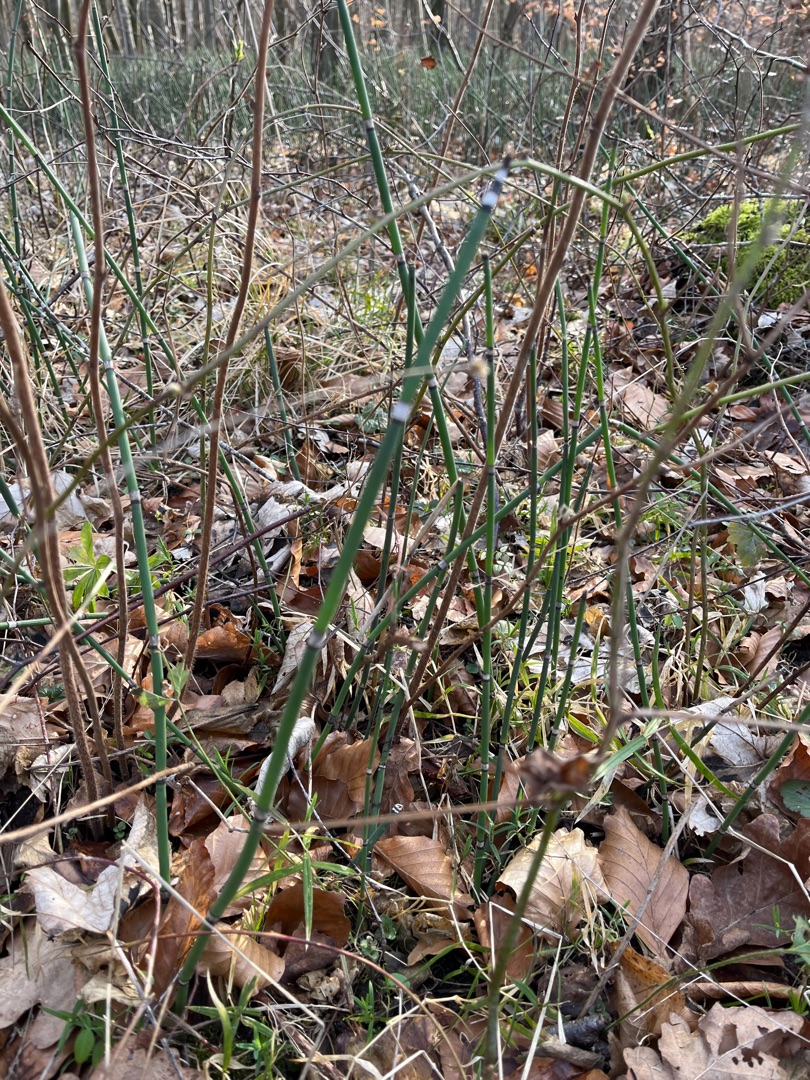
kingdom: Plantae
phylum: Tracheophyta
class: Polypodiopsida
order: Equisetales
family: Equisetaceae
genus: Equisetum
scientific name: Equisetum hyemale
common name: Skavgræs
